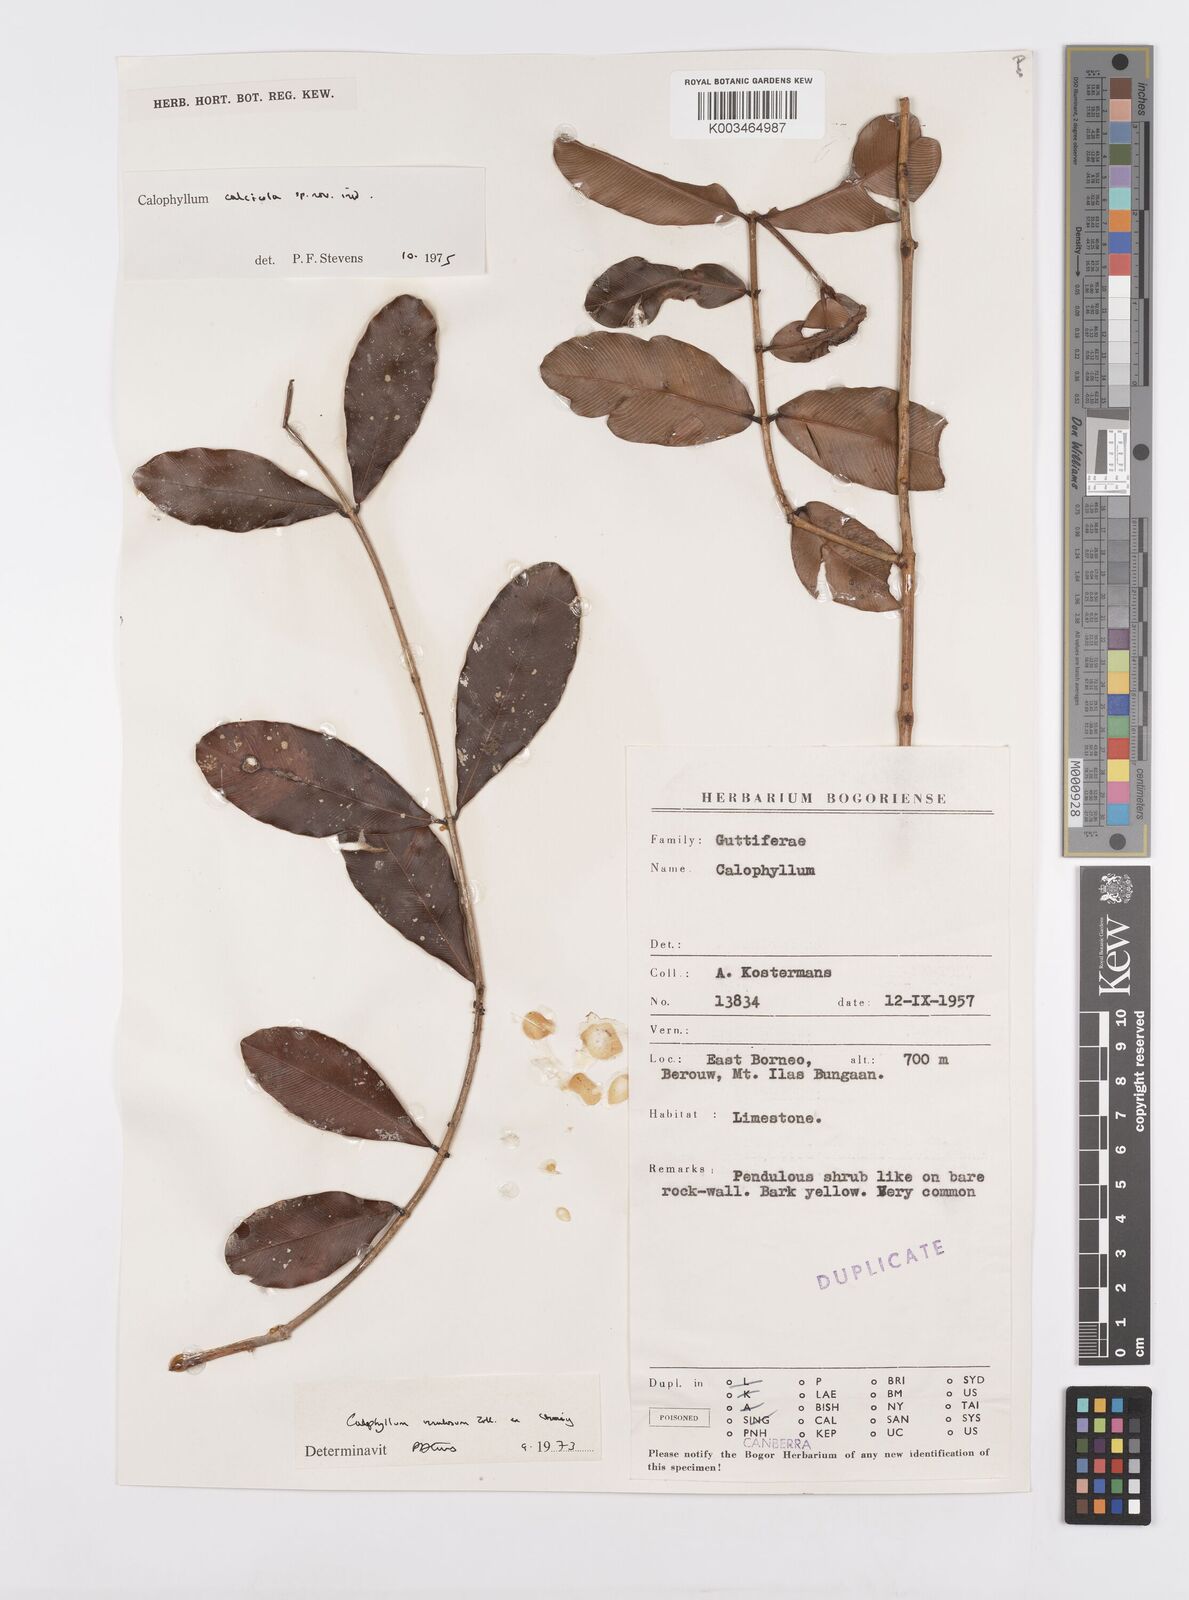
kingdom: Plantae
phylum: Tracheophyta
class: Magnoliopsida
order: Malpighiales
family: Calophyllaceae
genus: Calophyllum
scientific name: Calophyllum calcicola
